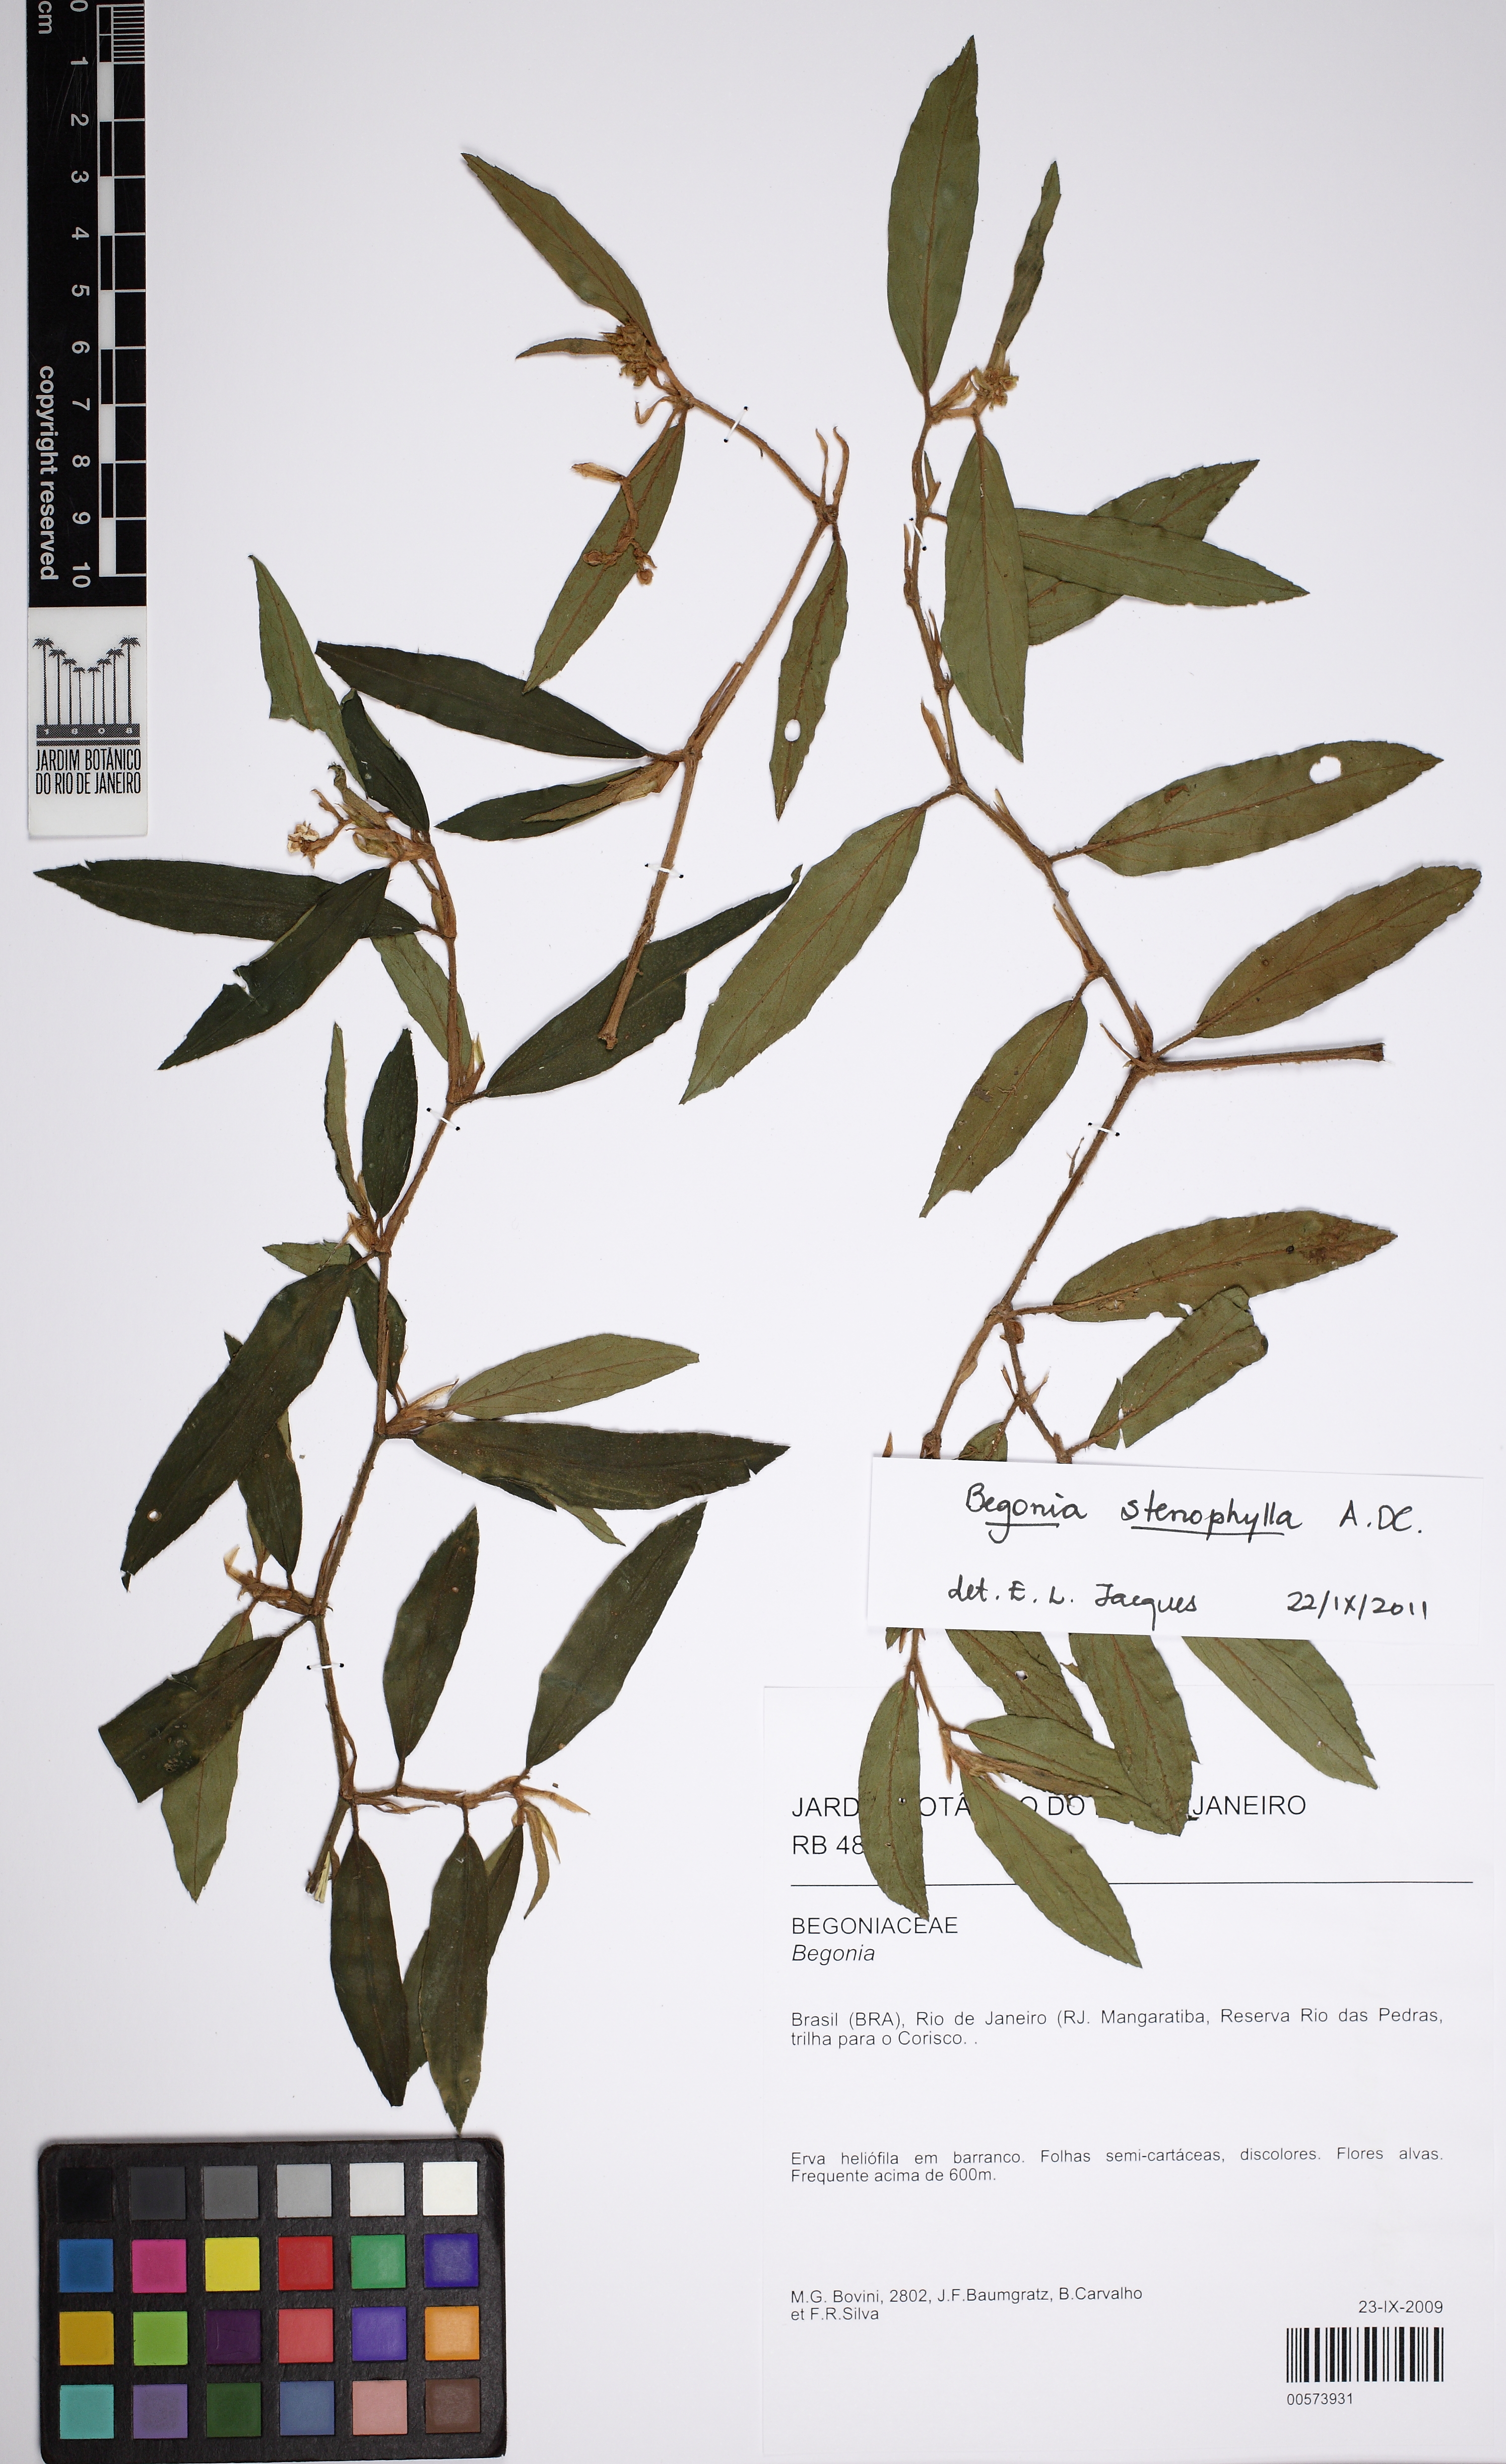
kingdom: Plantae
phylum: Tracheophyta
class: Magnoliopsida
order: Cucurbitales
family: Begoniaceae
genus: Begonia
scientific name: Begonia stenophylla
